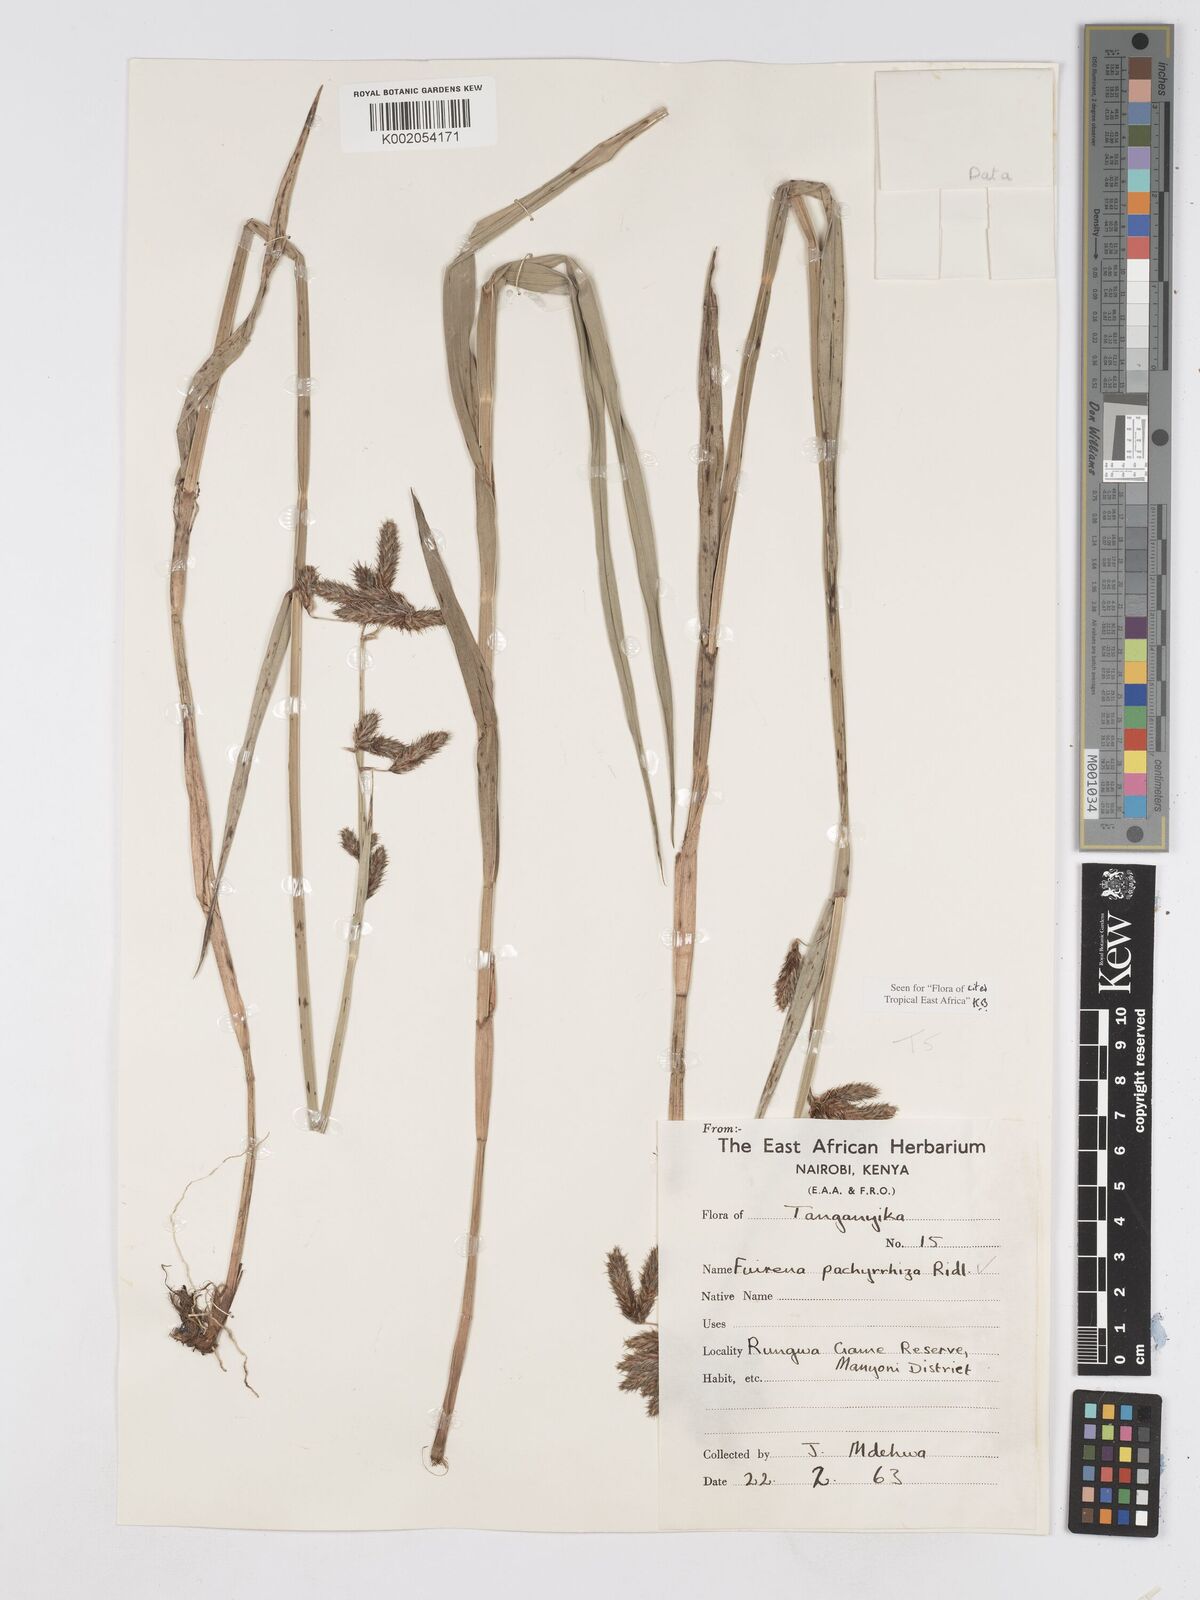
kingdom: Plantae
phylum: Tracheophyta
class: Liliopsida
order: Poales
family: Cyperaceae
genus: Fuirena
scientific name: Fuirena pachyrrhiza
